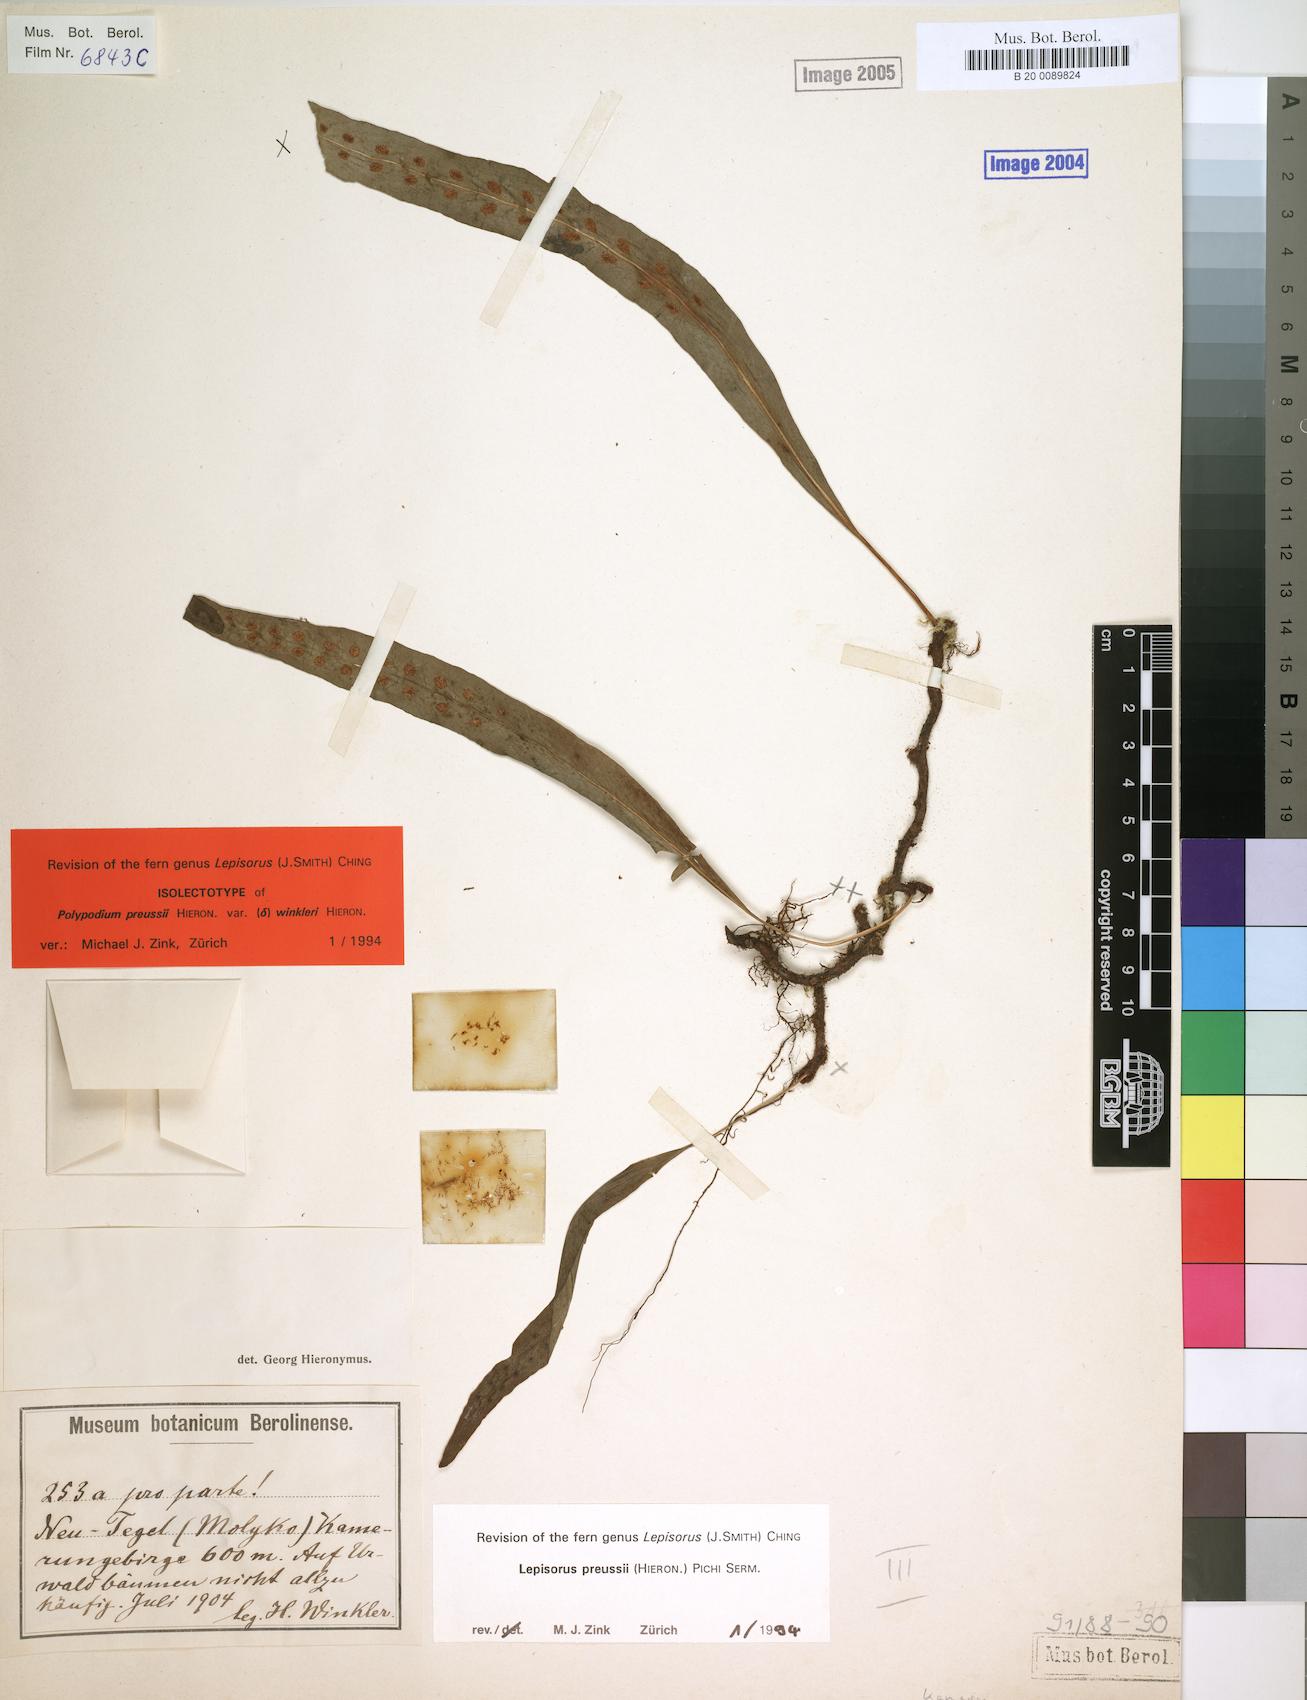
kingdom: Plantae
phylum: Tracheophyta
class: Polypodiopsida
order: Polypodiales
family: Polypodiaceae
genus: Lepisorus
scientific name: Lepisorus excavatus
